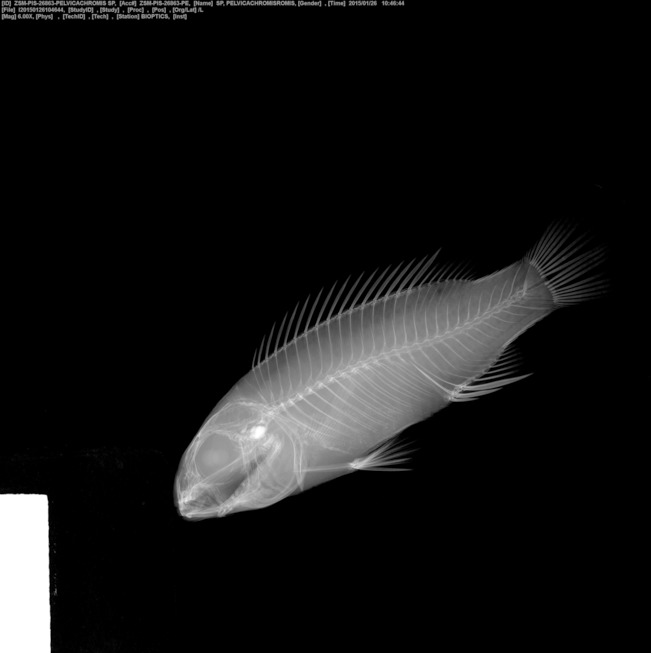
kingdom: Animalia
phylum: Chordata
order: Perciformes
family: Cichlidae
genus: Pelvicachromis
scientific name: Pelvicachromis
